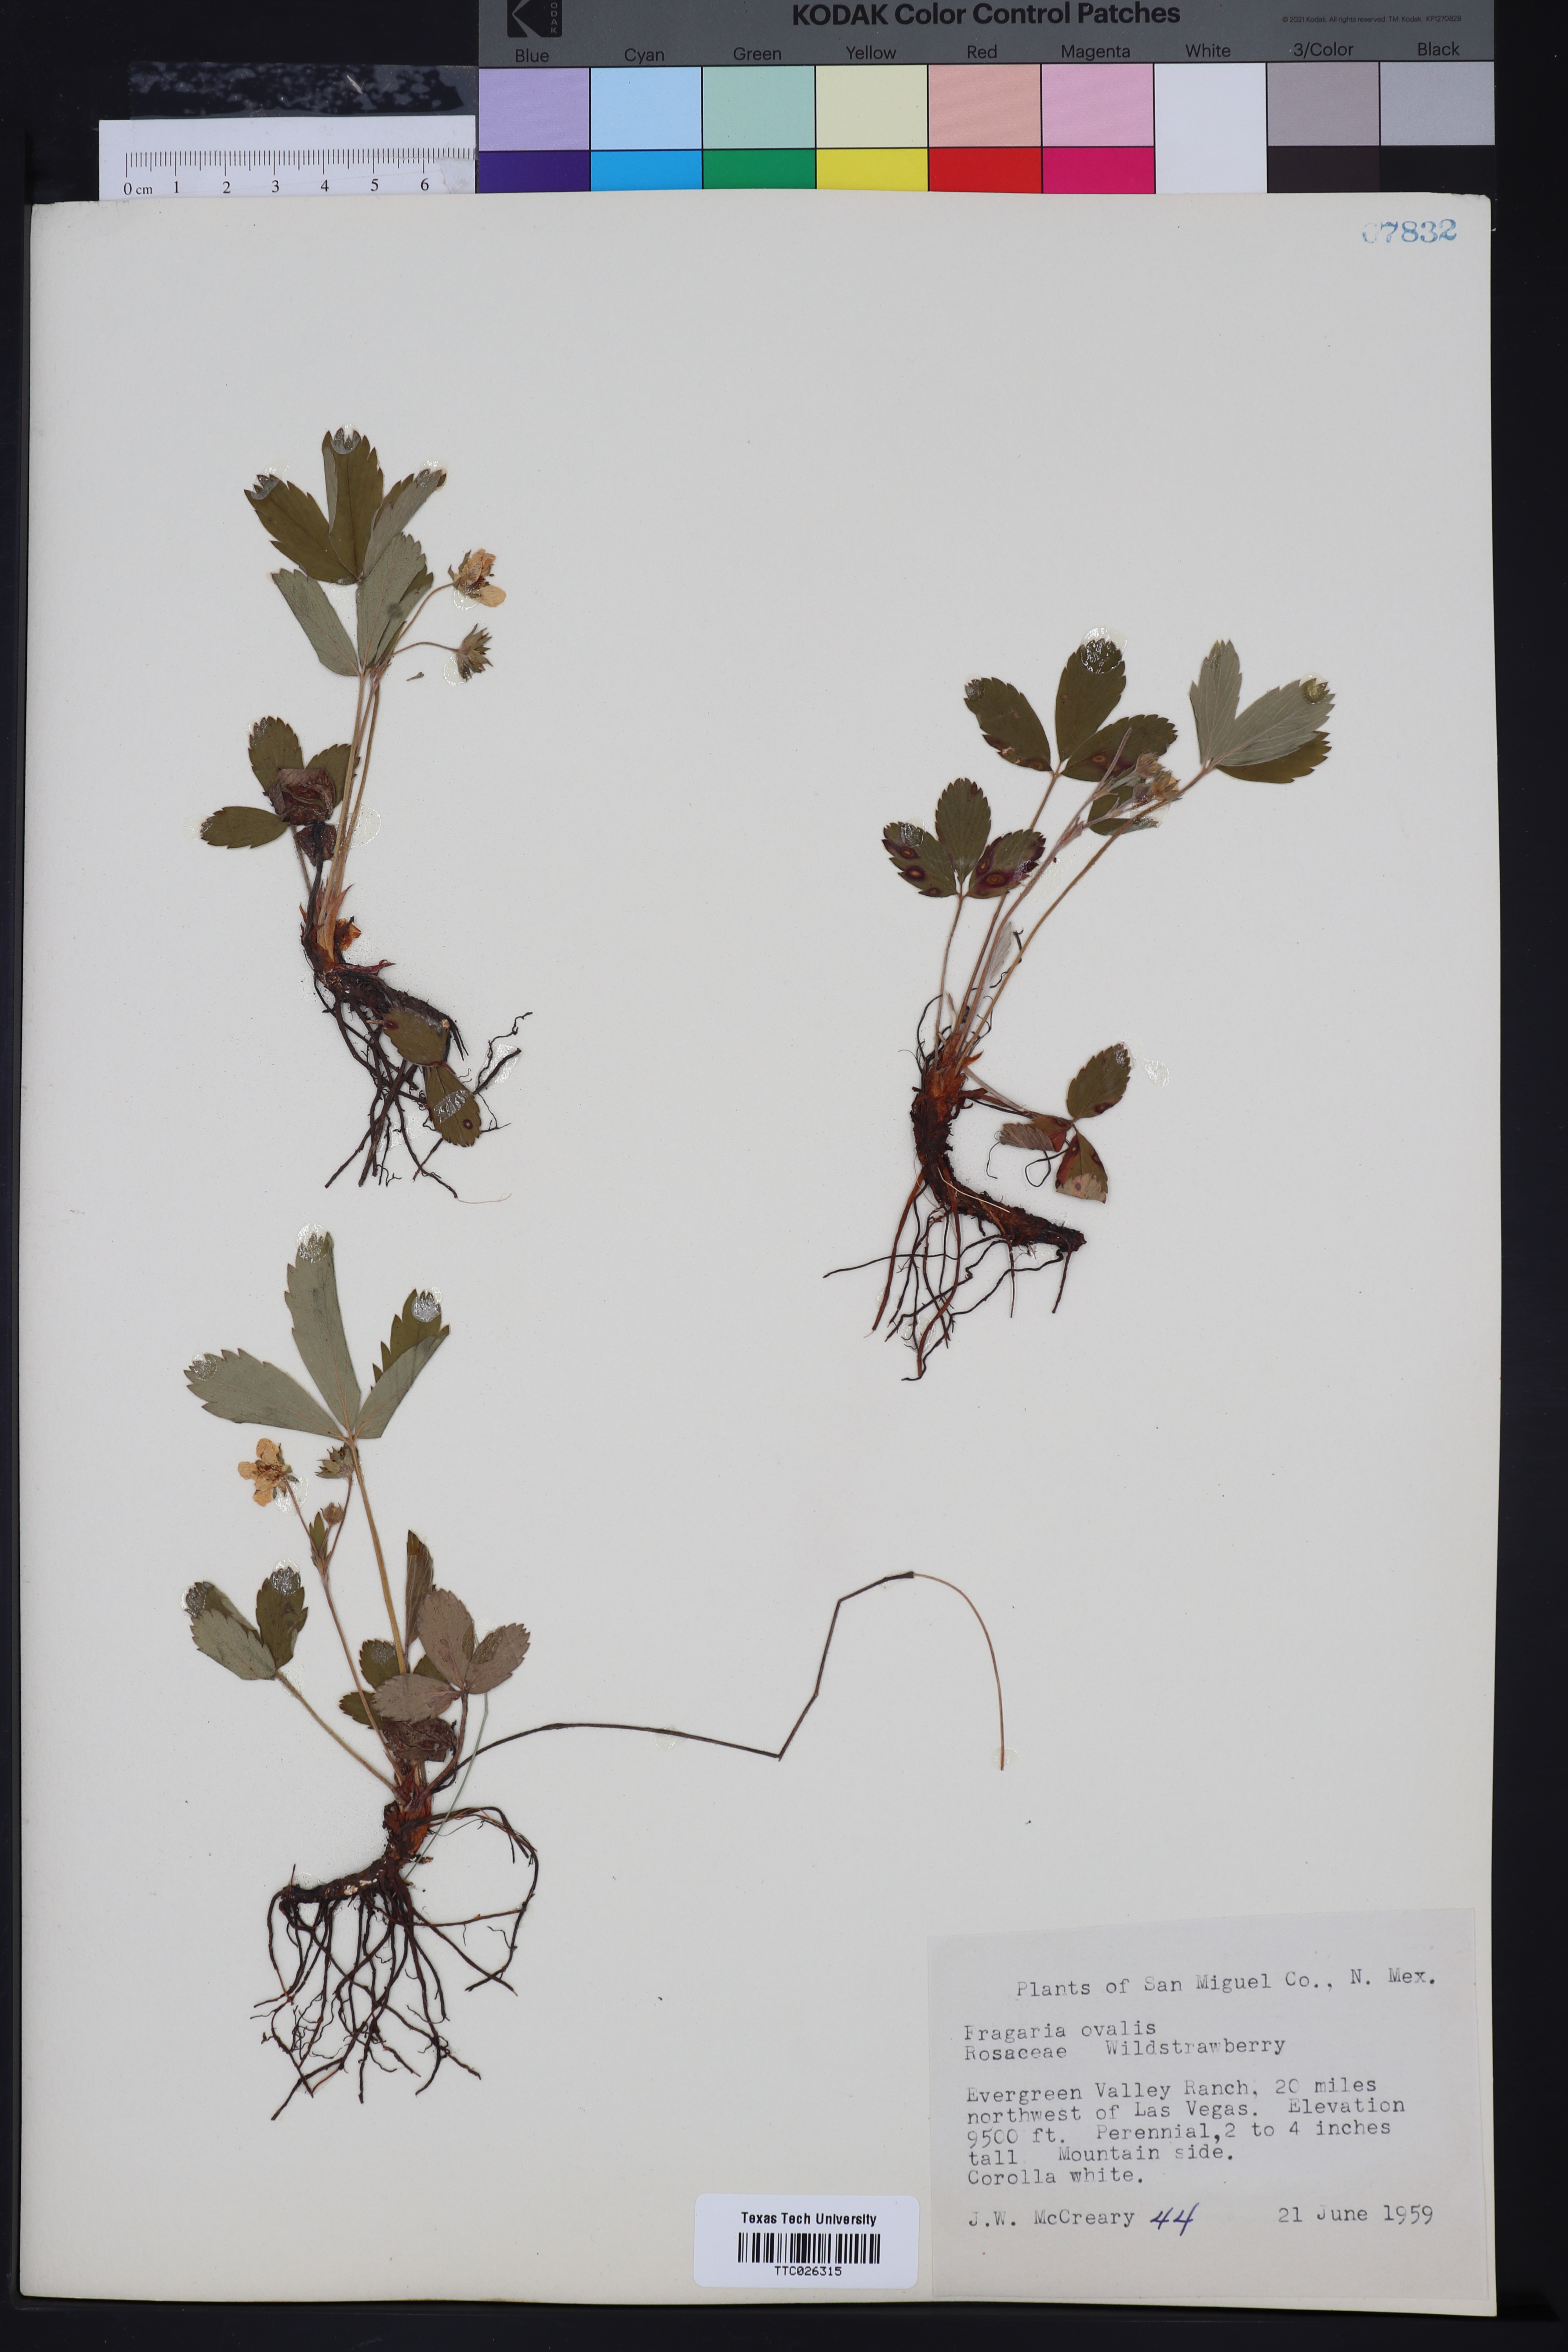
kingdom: Plantae
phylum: Tracheophyta
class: Magnoliopsida
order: Rosales
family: Rosaceae
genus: Fragaria
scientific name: Fragaria virginiana
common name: Thickleaved wild strawberry
